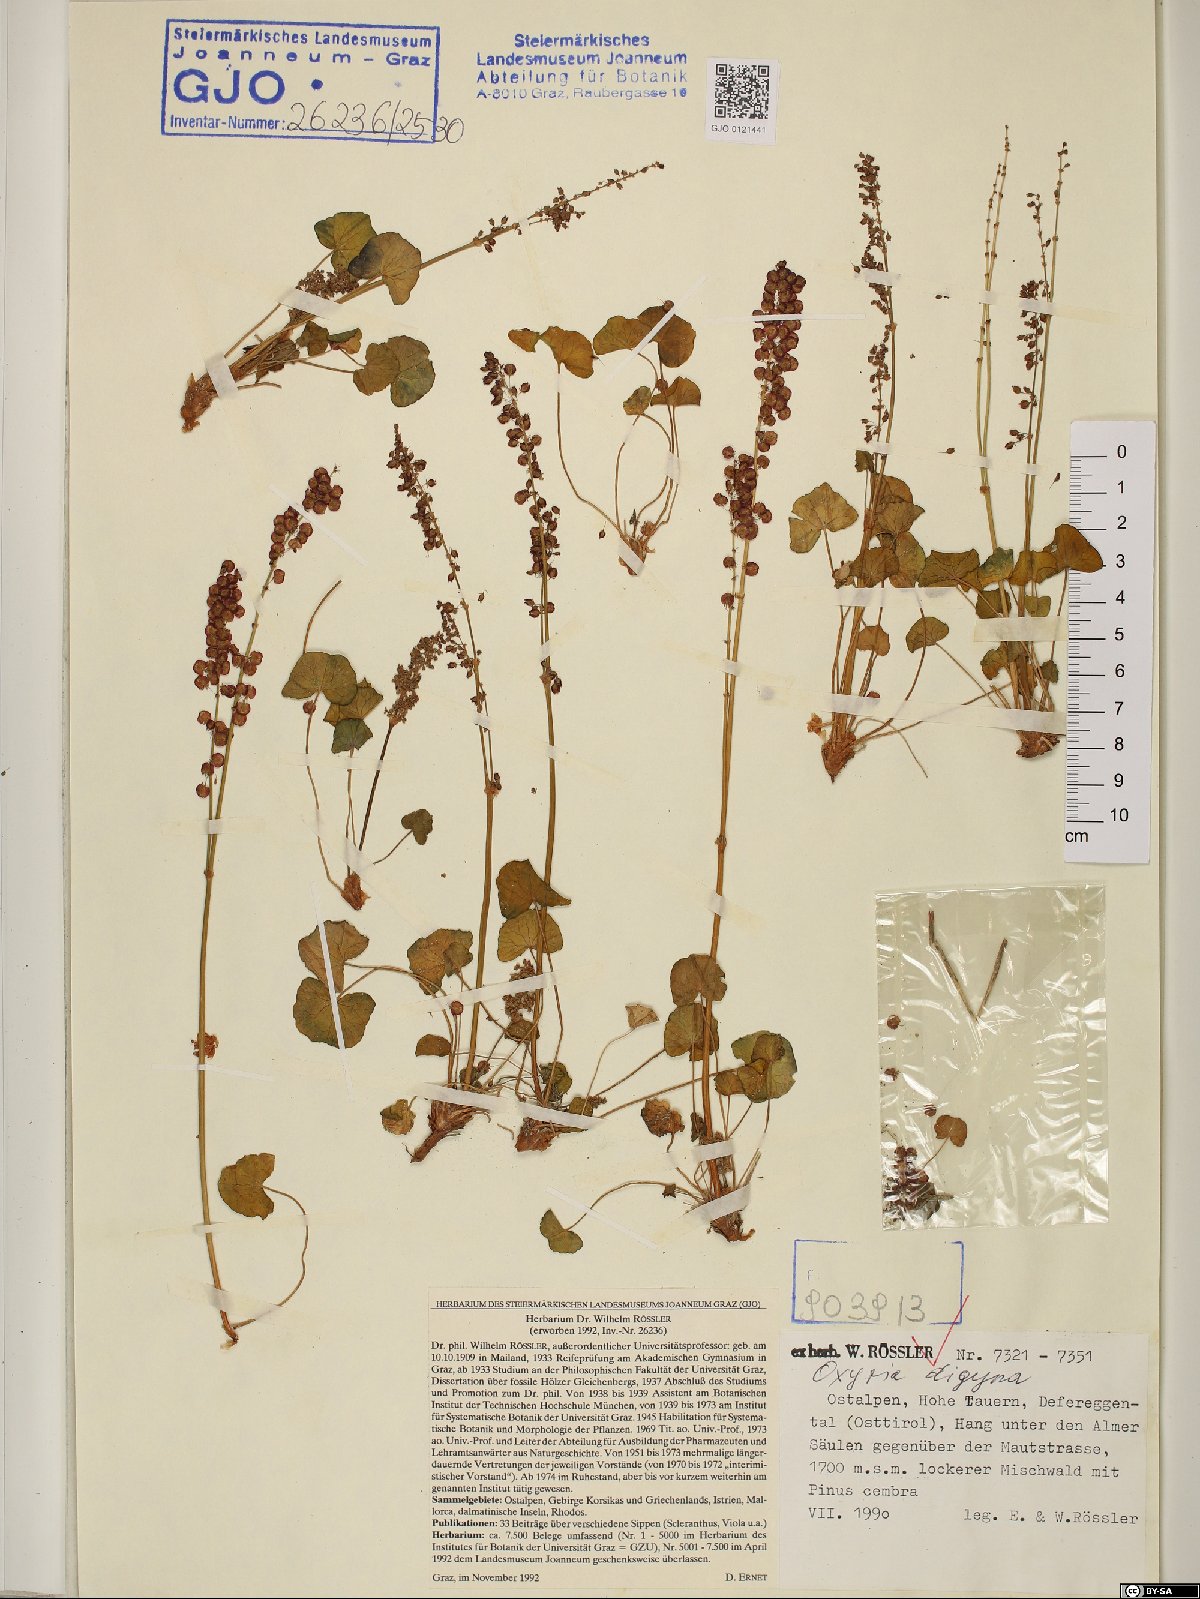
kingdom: Plantae
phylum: Tracheophyta
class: Magnoliopsida
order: Caryophyllales
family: Polygonaceae
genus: Oxyria
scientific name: Oxyria digyna
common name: Alpine mountain-sorrel
